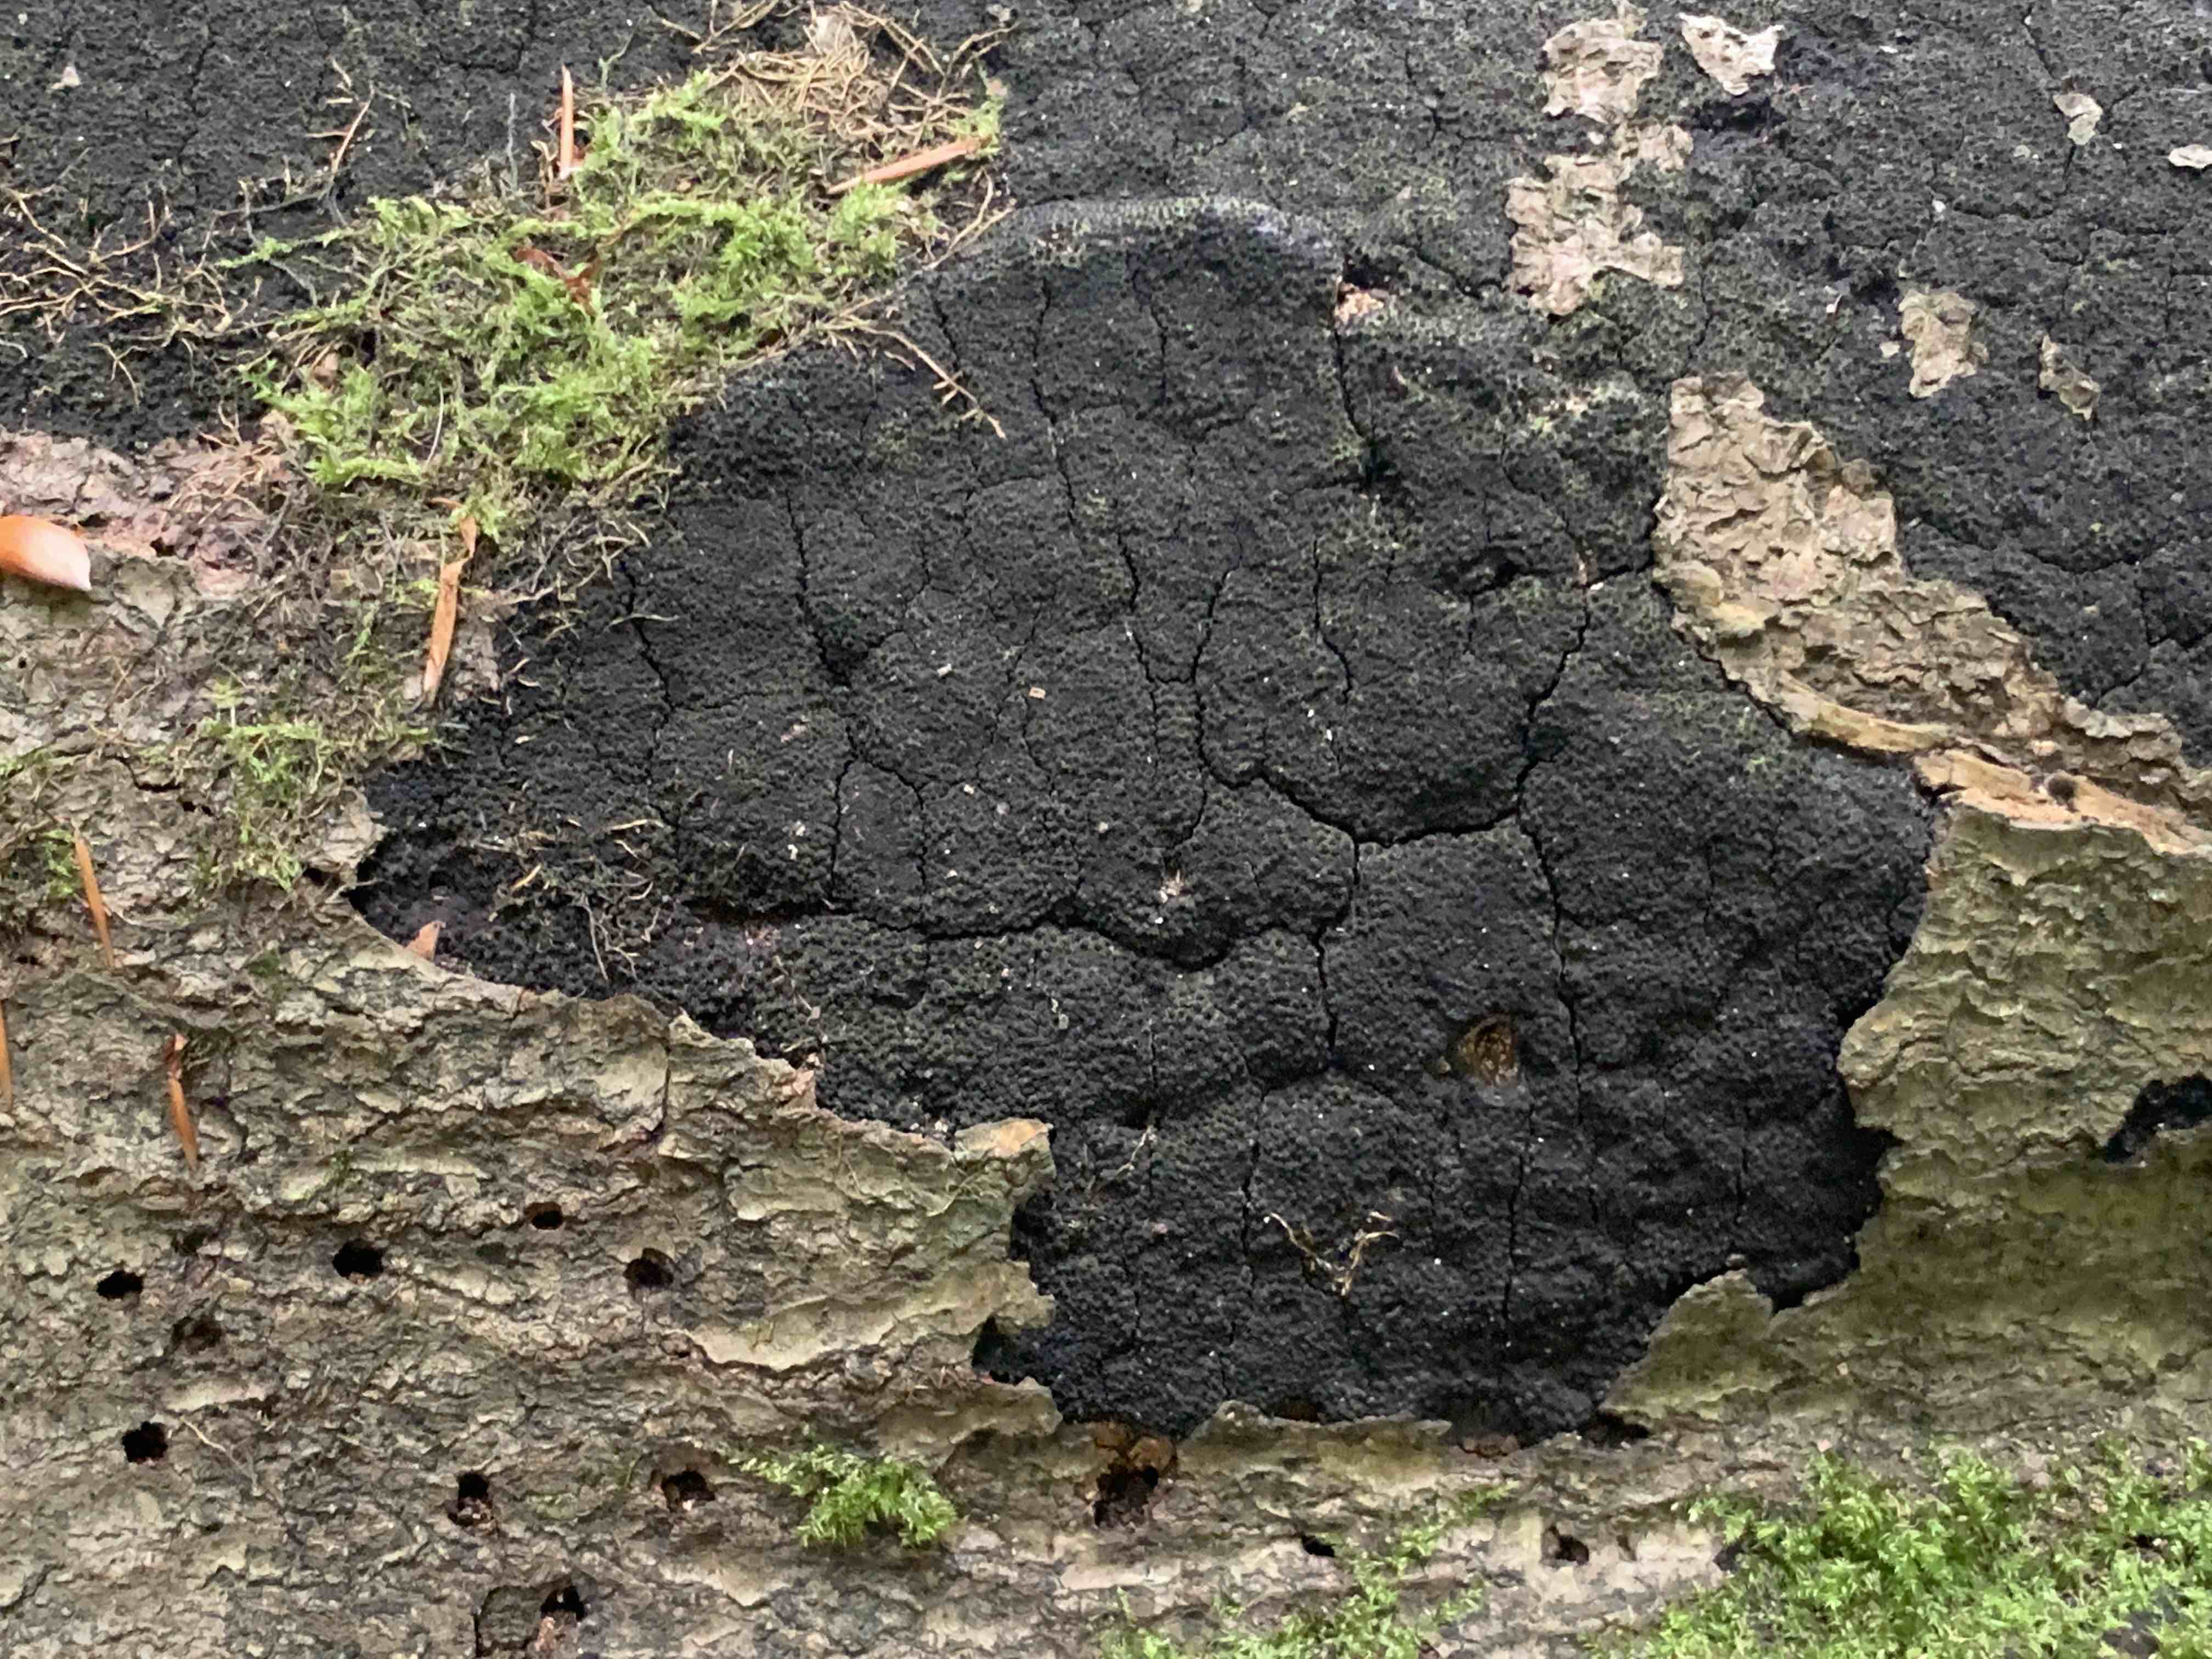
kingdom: Fungi
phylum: Ascomycota
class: Sordariomycetes
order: Xylariales
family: Diatrypaceae
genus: Eutypa
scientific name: Eutypa spinosa
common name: grov kulskorpe
